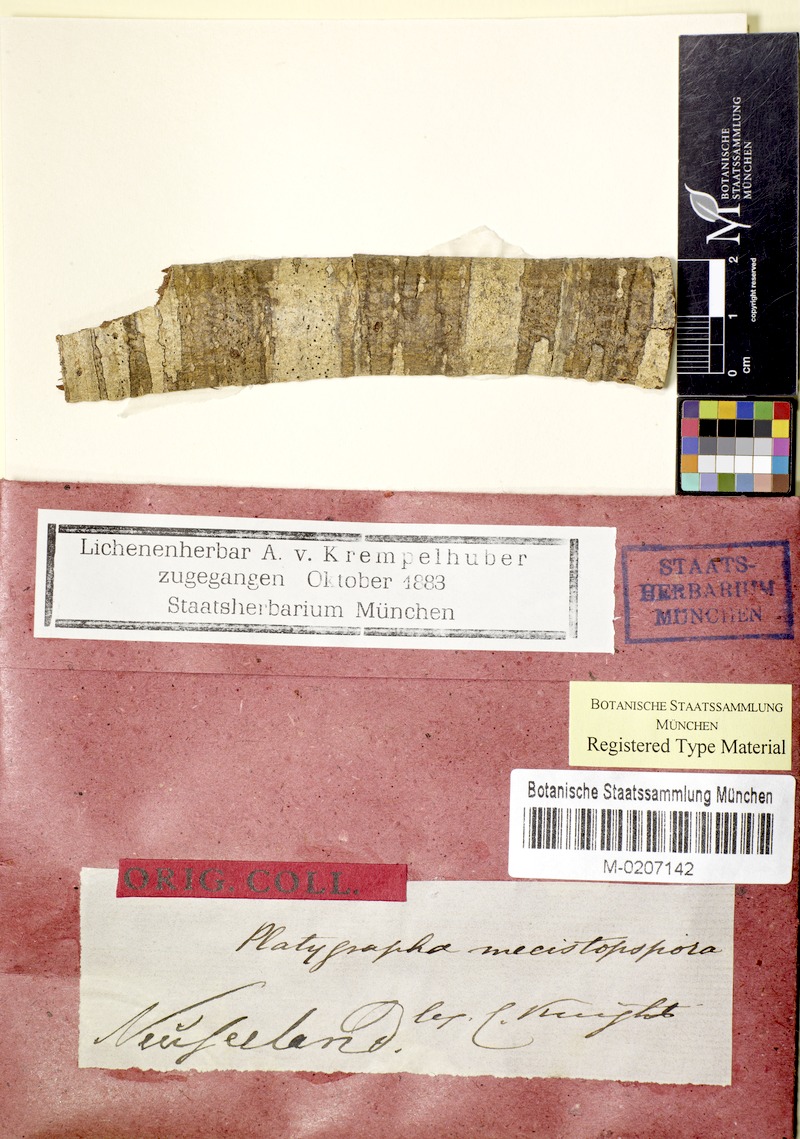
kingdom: Fungi
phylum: Ascomycota
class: Arthoniomycetes
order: Arthoniales
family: Roccellaceae
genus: Bactrospora
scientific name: Bactrospora pleistophragmoides
